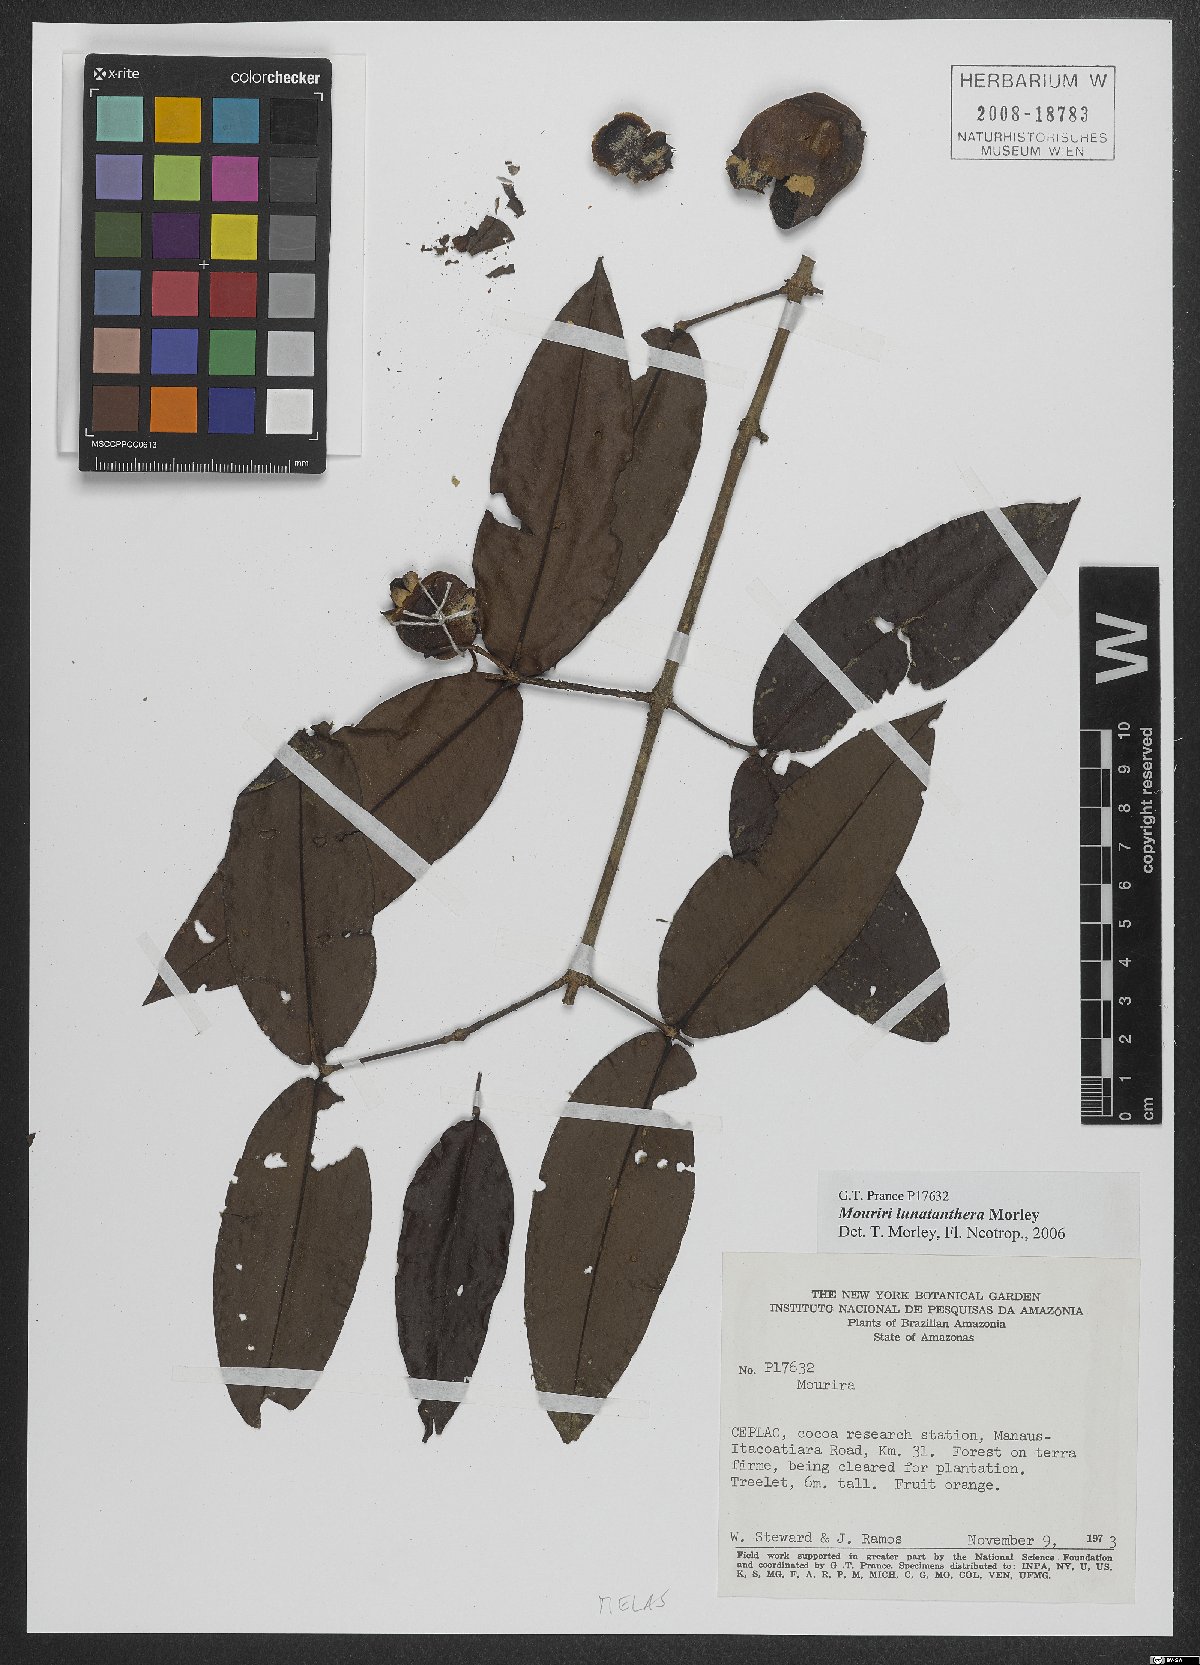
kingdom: Plantae
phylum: Tracheophyta
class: Magnoliopsida
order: Myrtales
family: Melastomataceae
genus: Mouriri
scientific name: Mouriri lunatanthera
